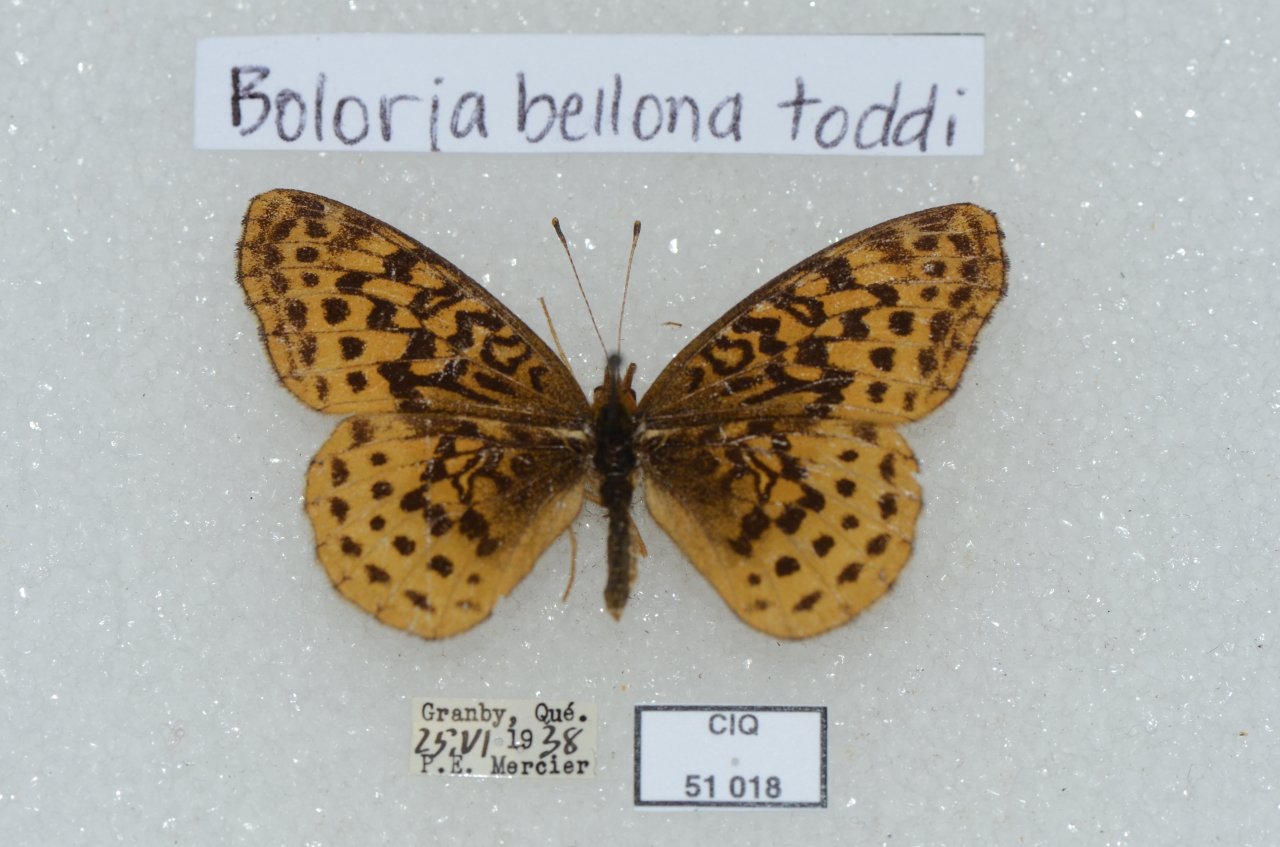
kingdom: Animalia
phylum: Arthropoda
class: Insecta
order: Lepidoptera
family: Nymphalidae
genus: Clossiana
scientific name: Clossiana toddi
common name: Meadow Fritillary
